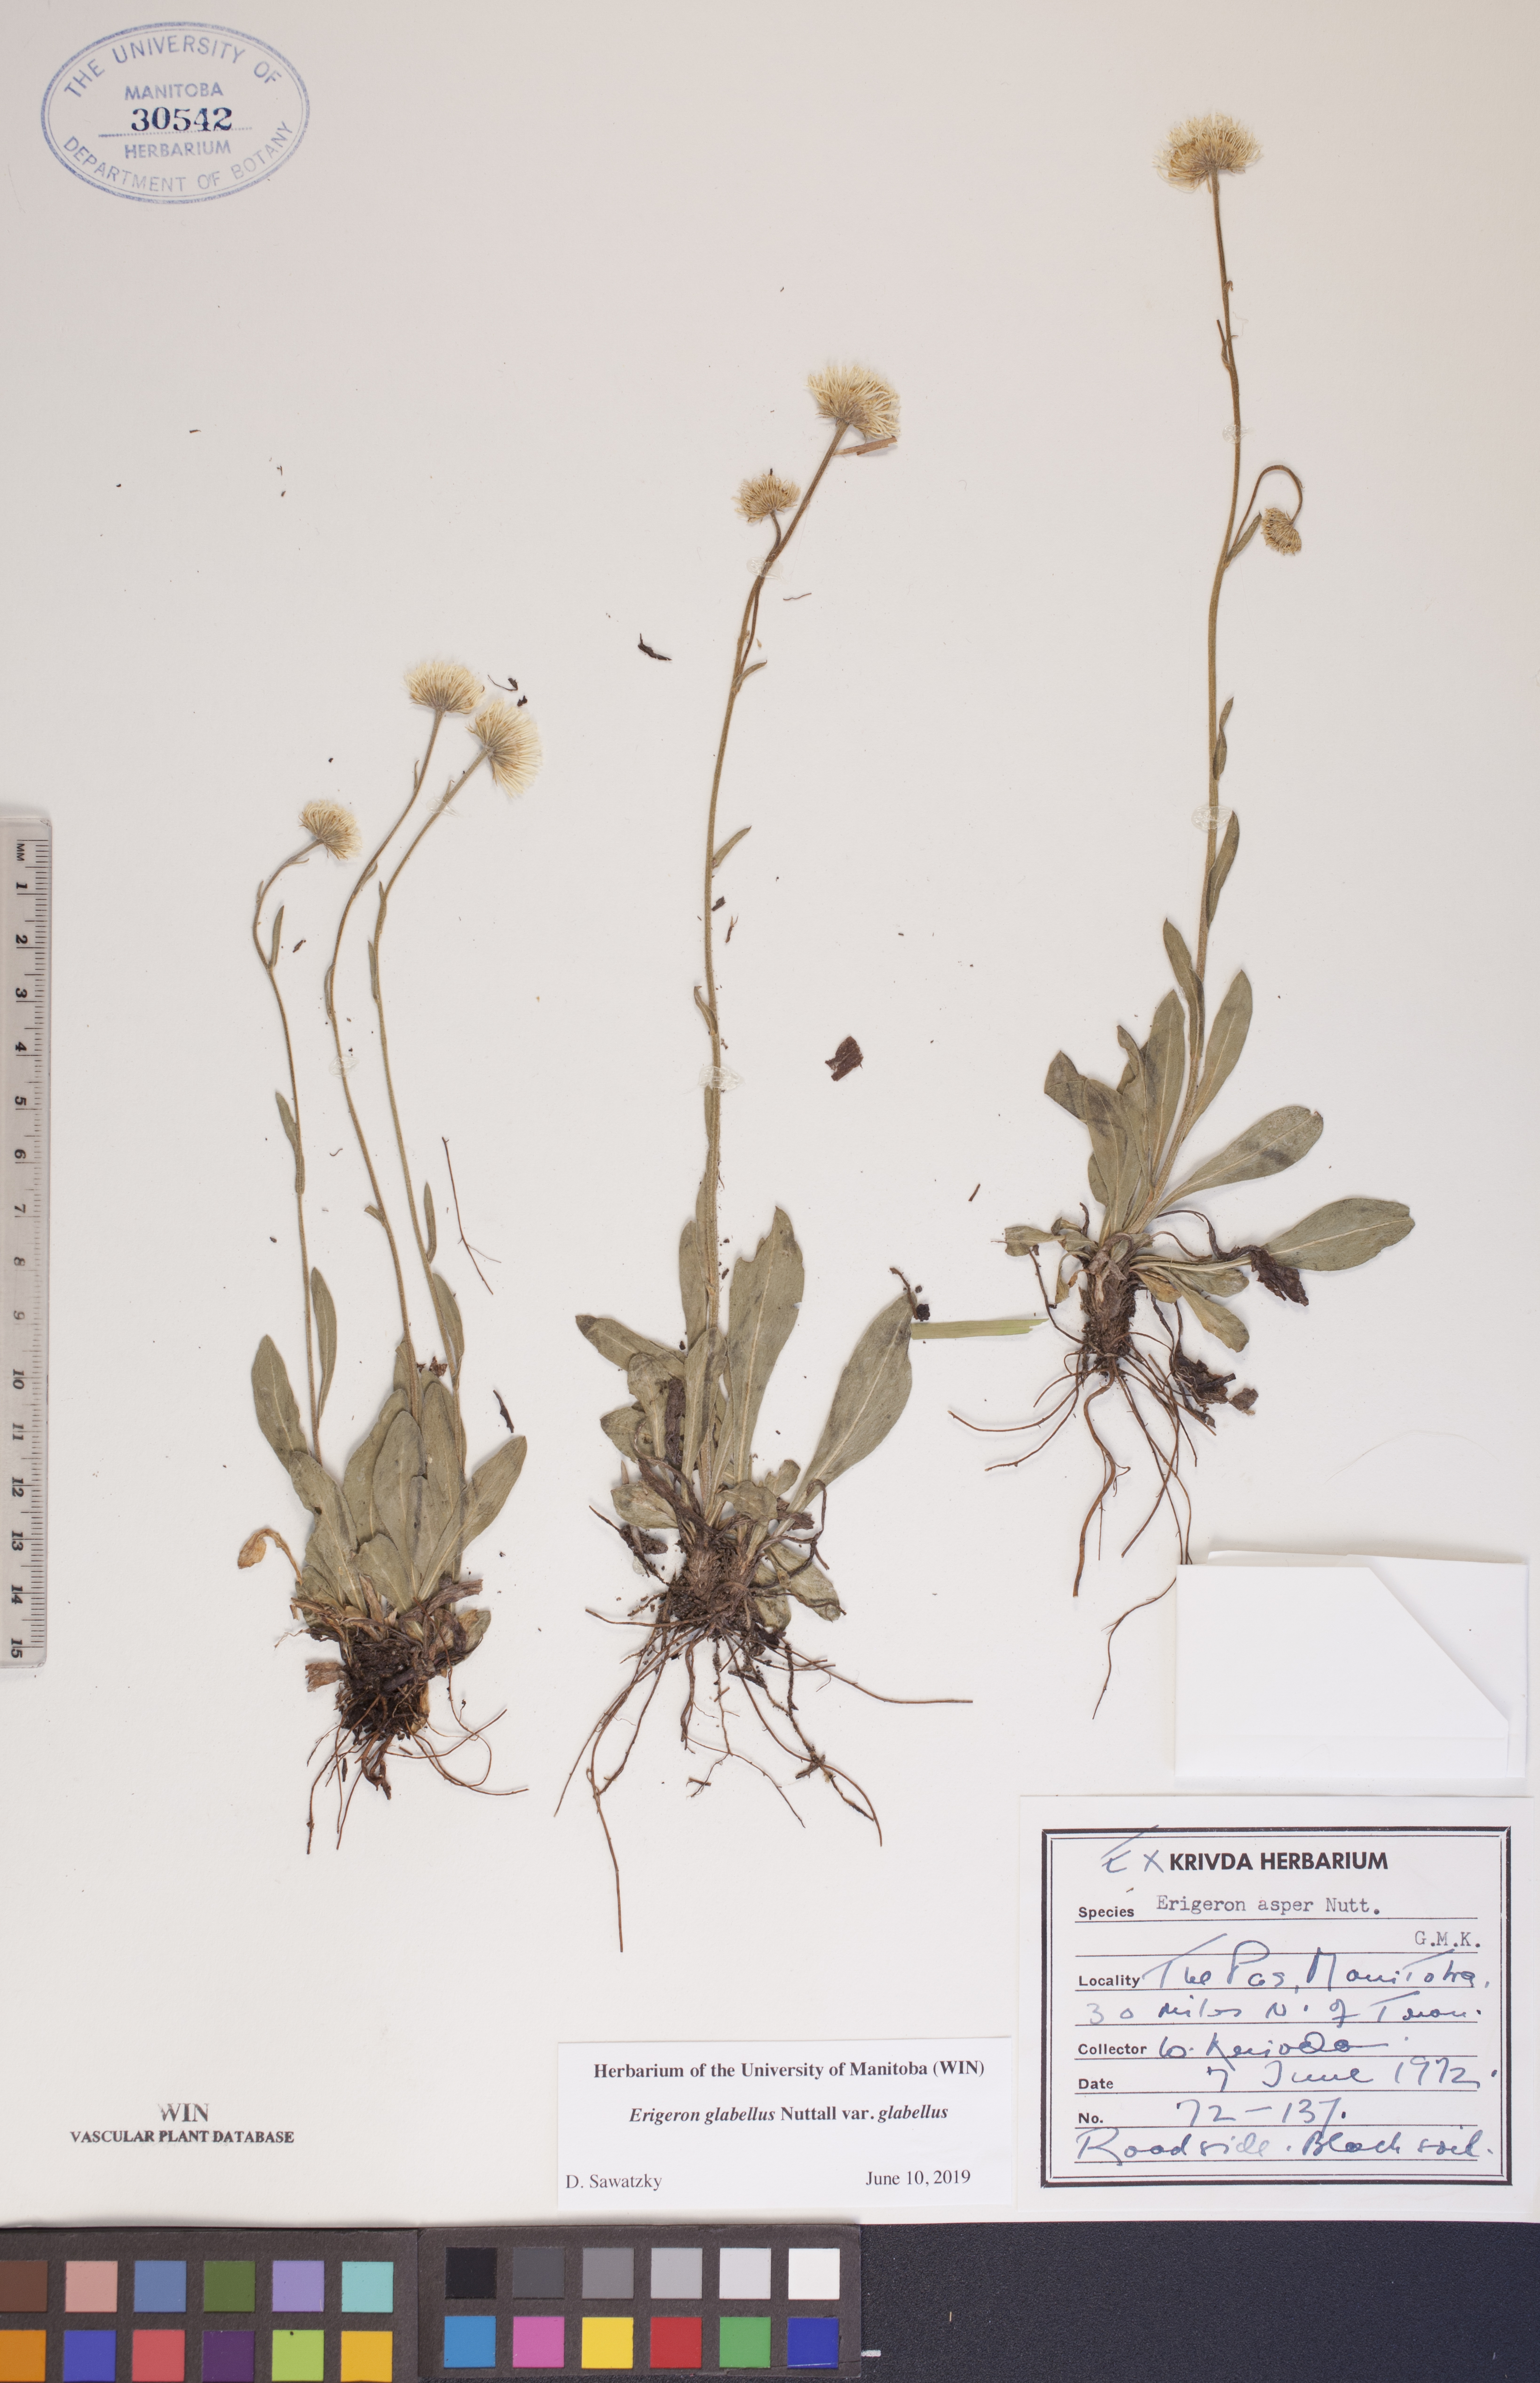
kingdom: Plantae
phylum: Tracheophyta
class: Magnoliopsida
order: Asterales
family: Asteraceae
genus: Erigeron
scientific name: Erigeron glabellus
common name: Smooth fleabane
